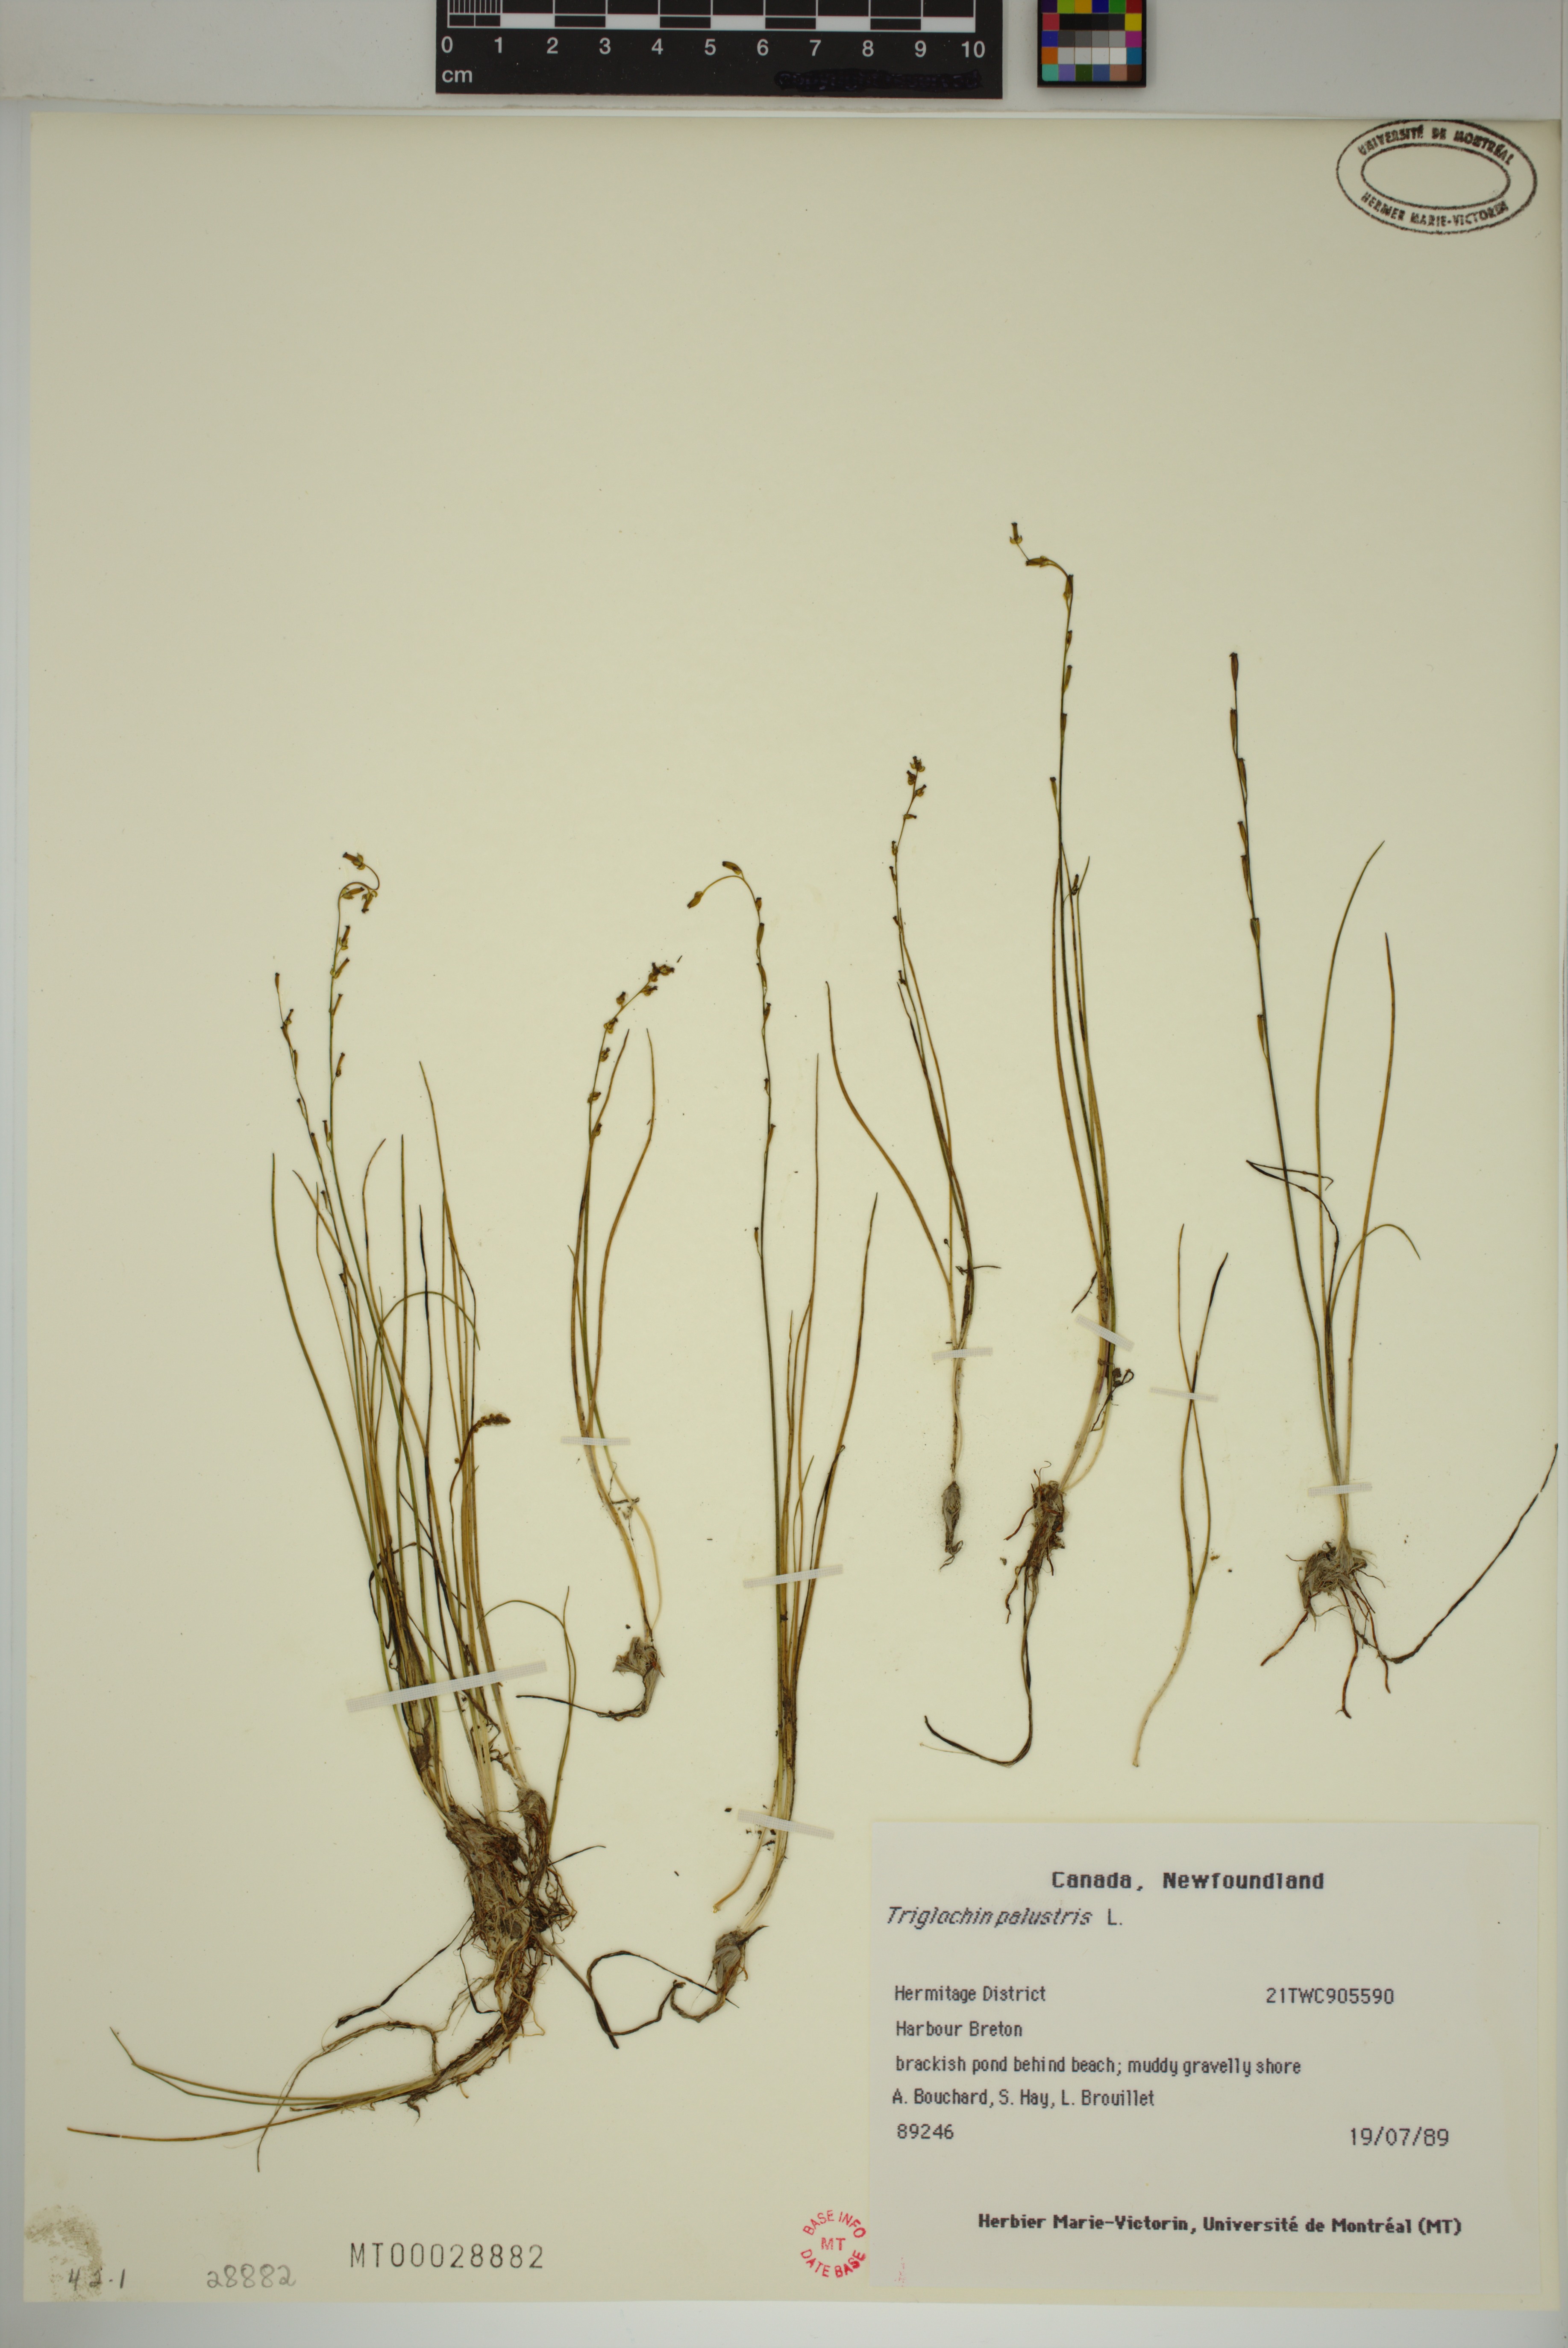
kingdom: Plantae
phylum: Tracheophyta
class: Liliopsida
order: Alismatales
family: Juncaginaceae
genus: Triglochin
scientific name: Triglochin palustris
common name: Marsh arrowgrass
